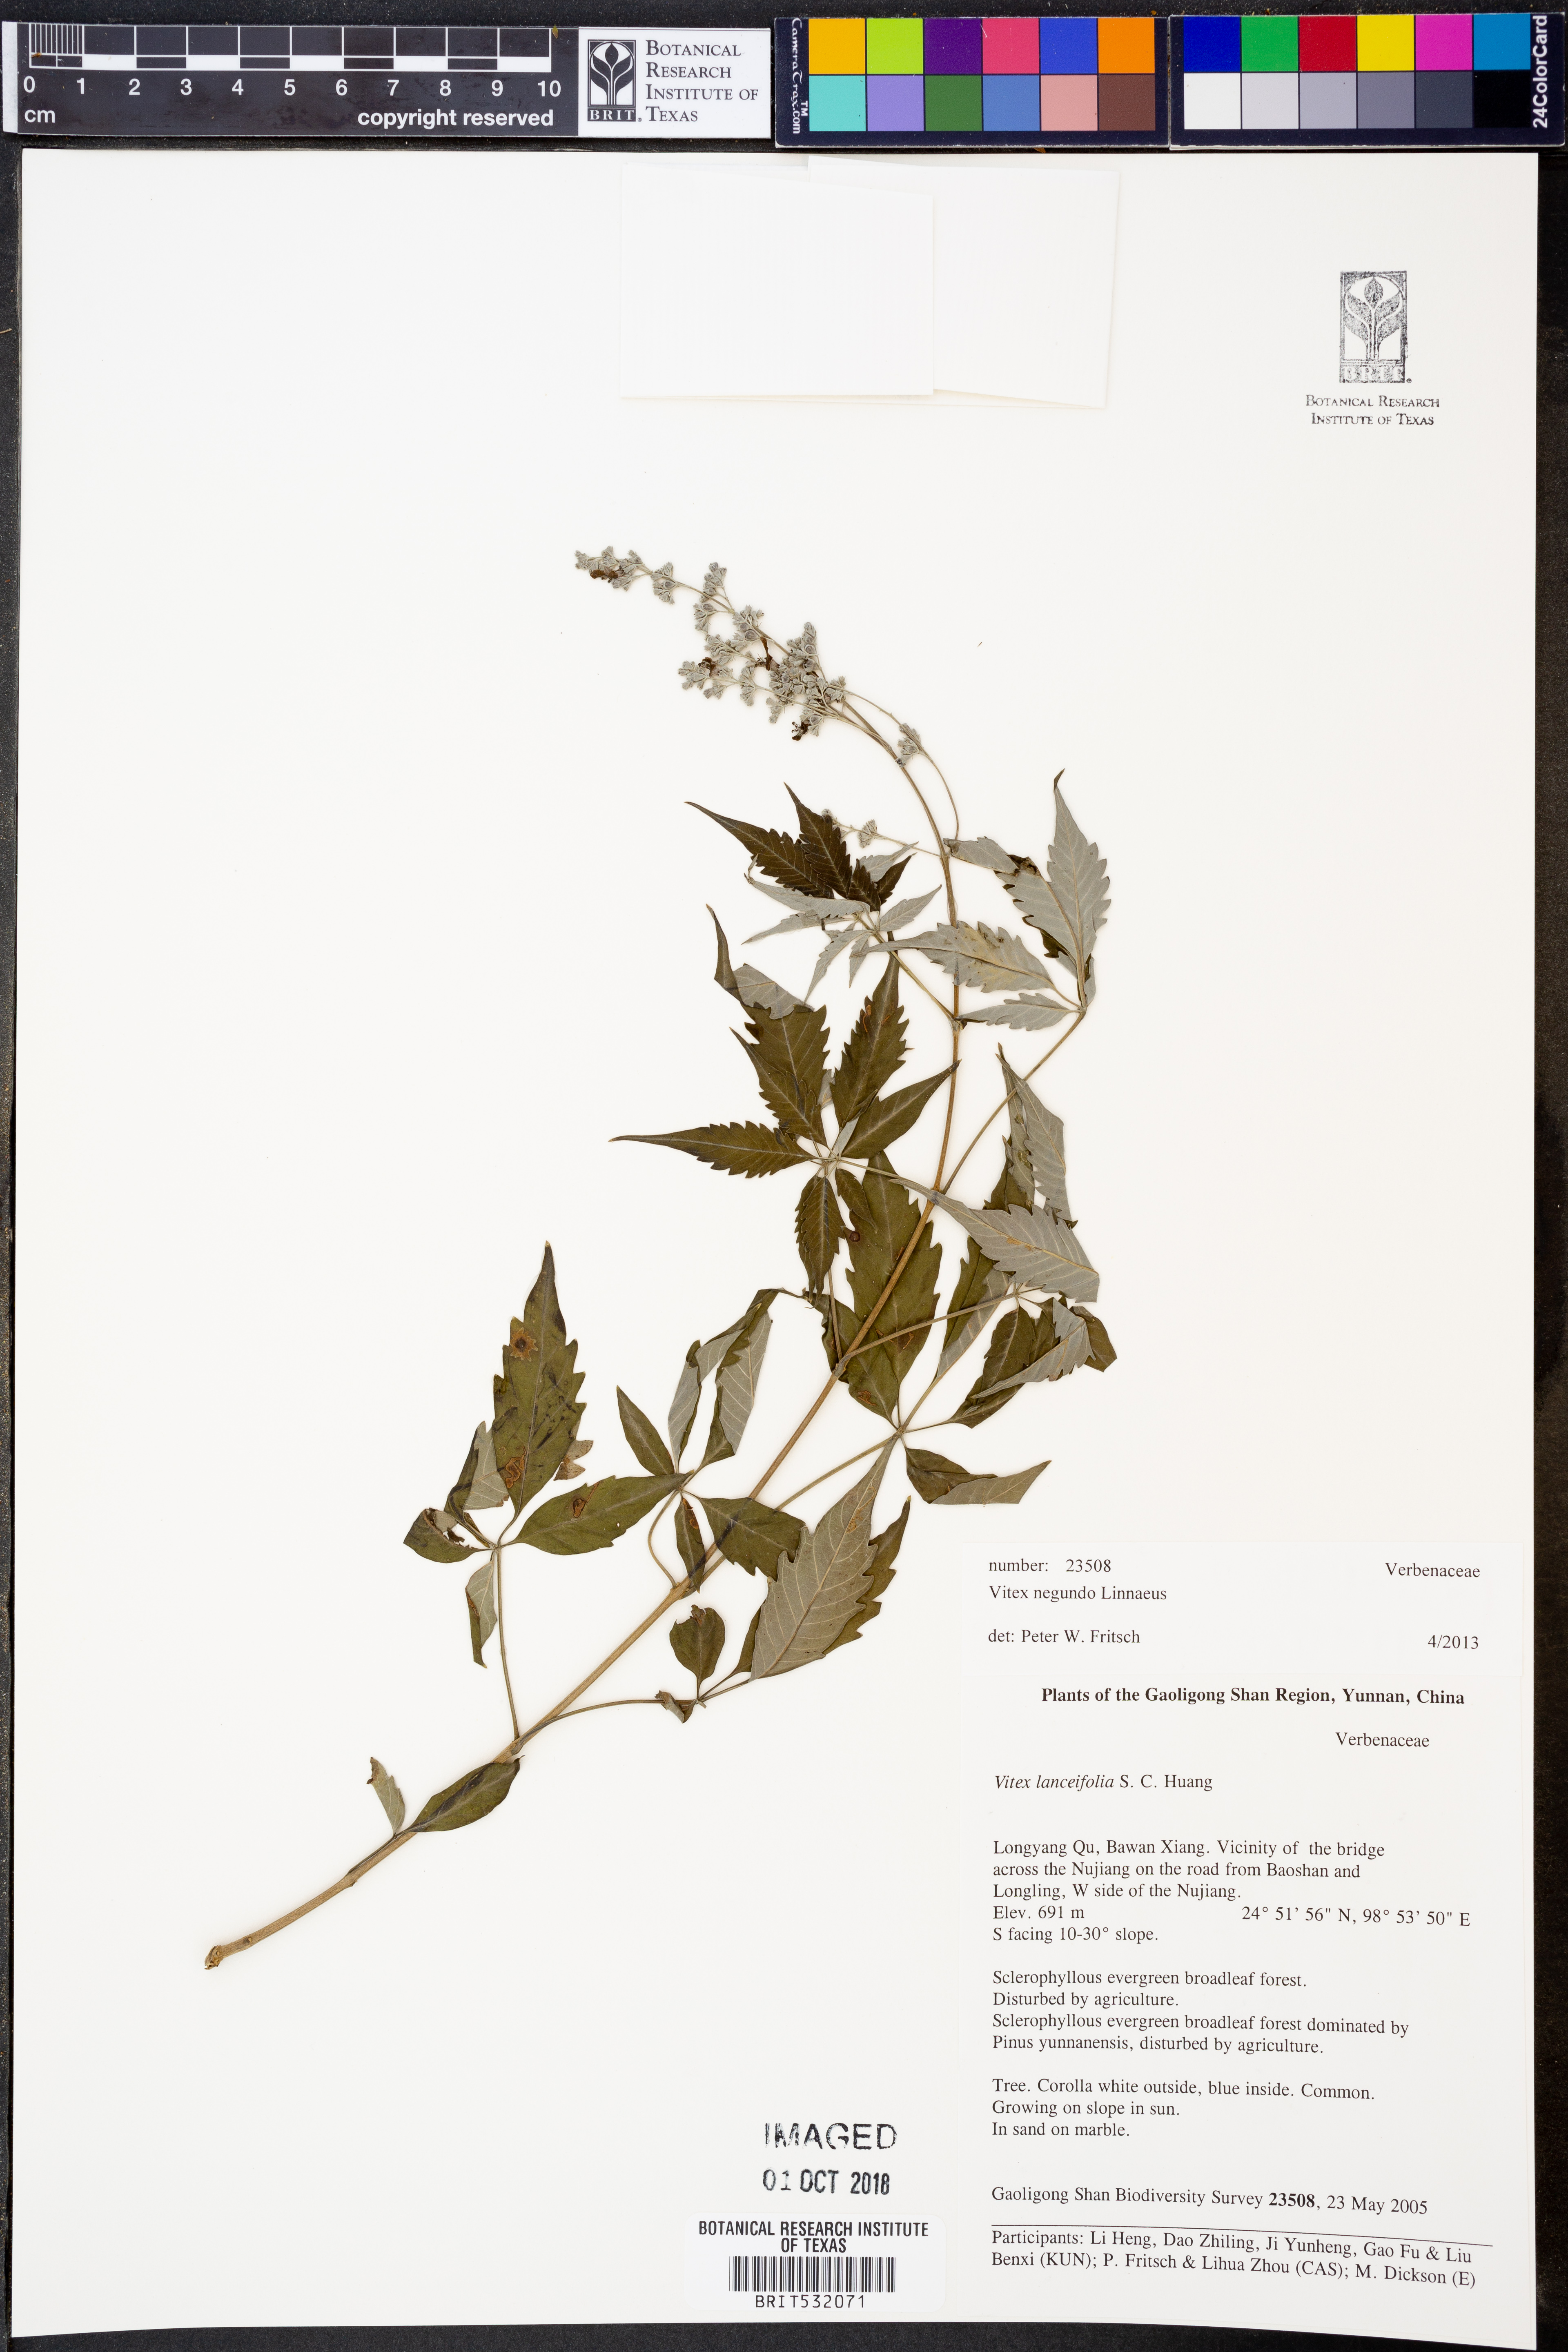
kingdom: Plantae
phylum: Tracheophyta
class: Magnoliopsida
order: Lamiales
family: Lamiaceae
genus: Vitex
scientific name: Vitex negundo
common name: Chinese chastetree
